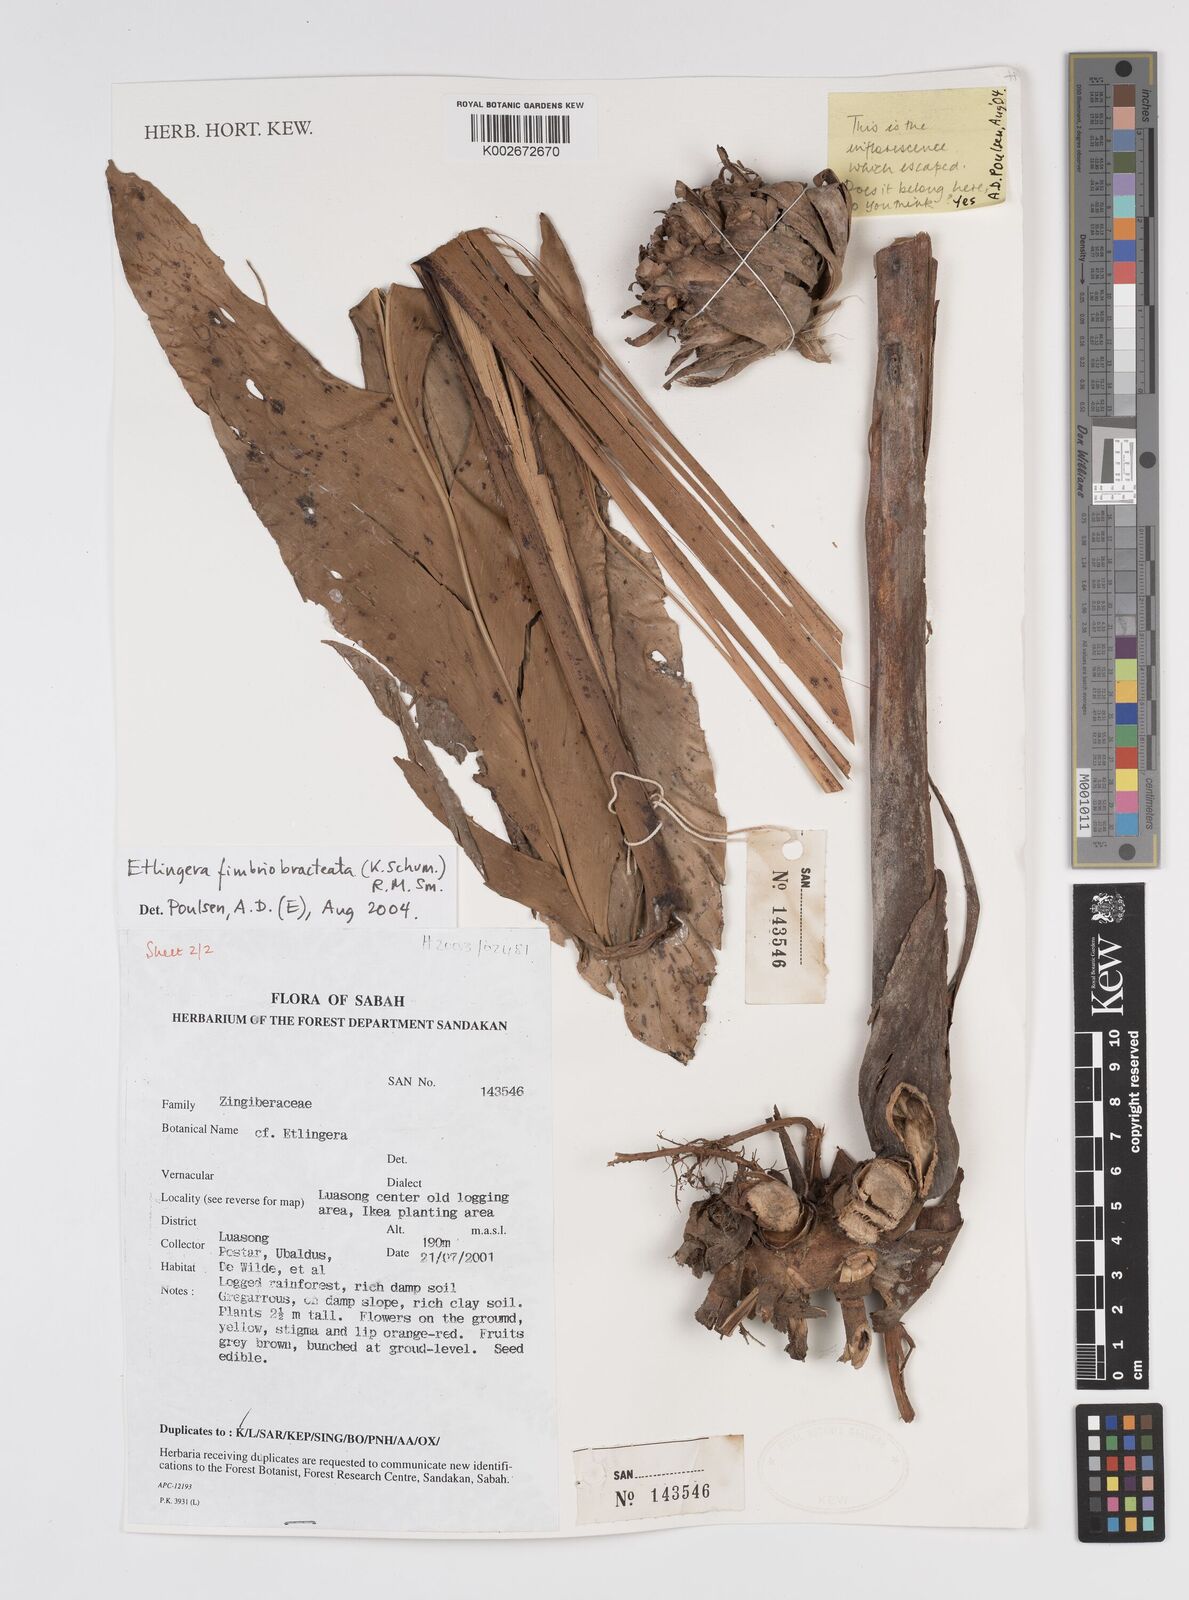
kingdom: Plantae
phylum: Tracheophyta
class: Liliopsida
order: Zingiberales
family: Zingiberaceae
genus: Etlingera
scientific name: Etlingera fimbriobracteata
